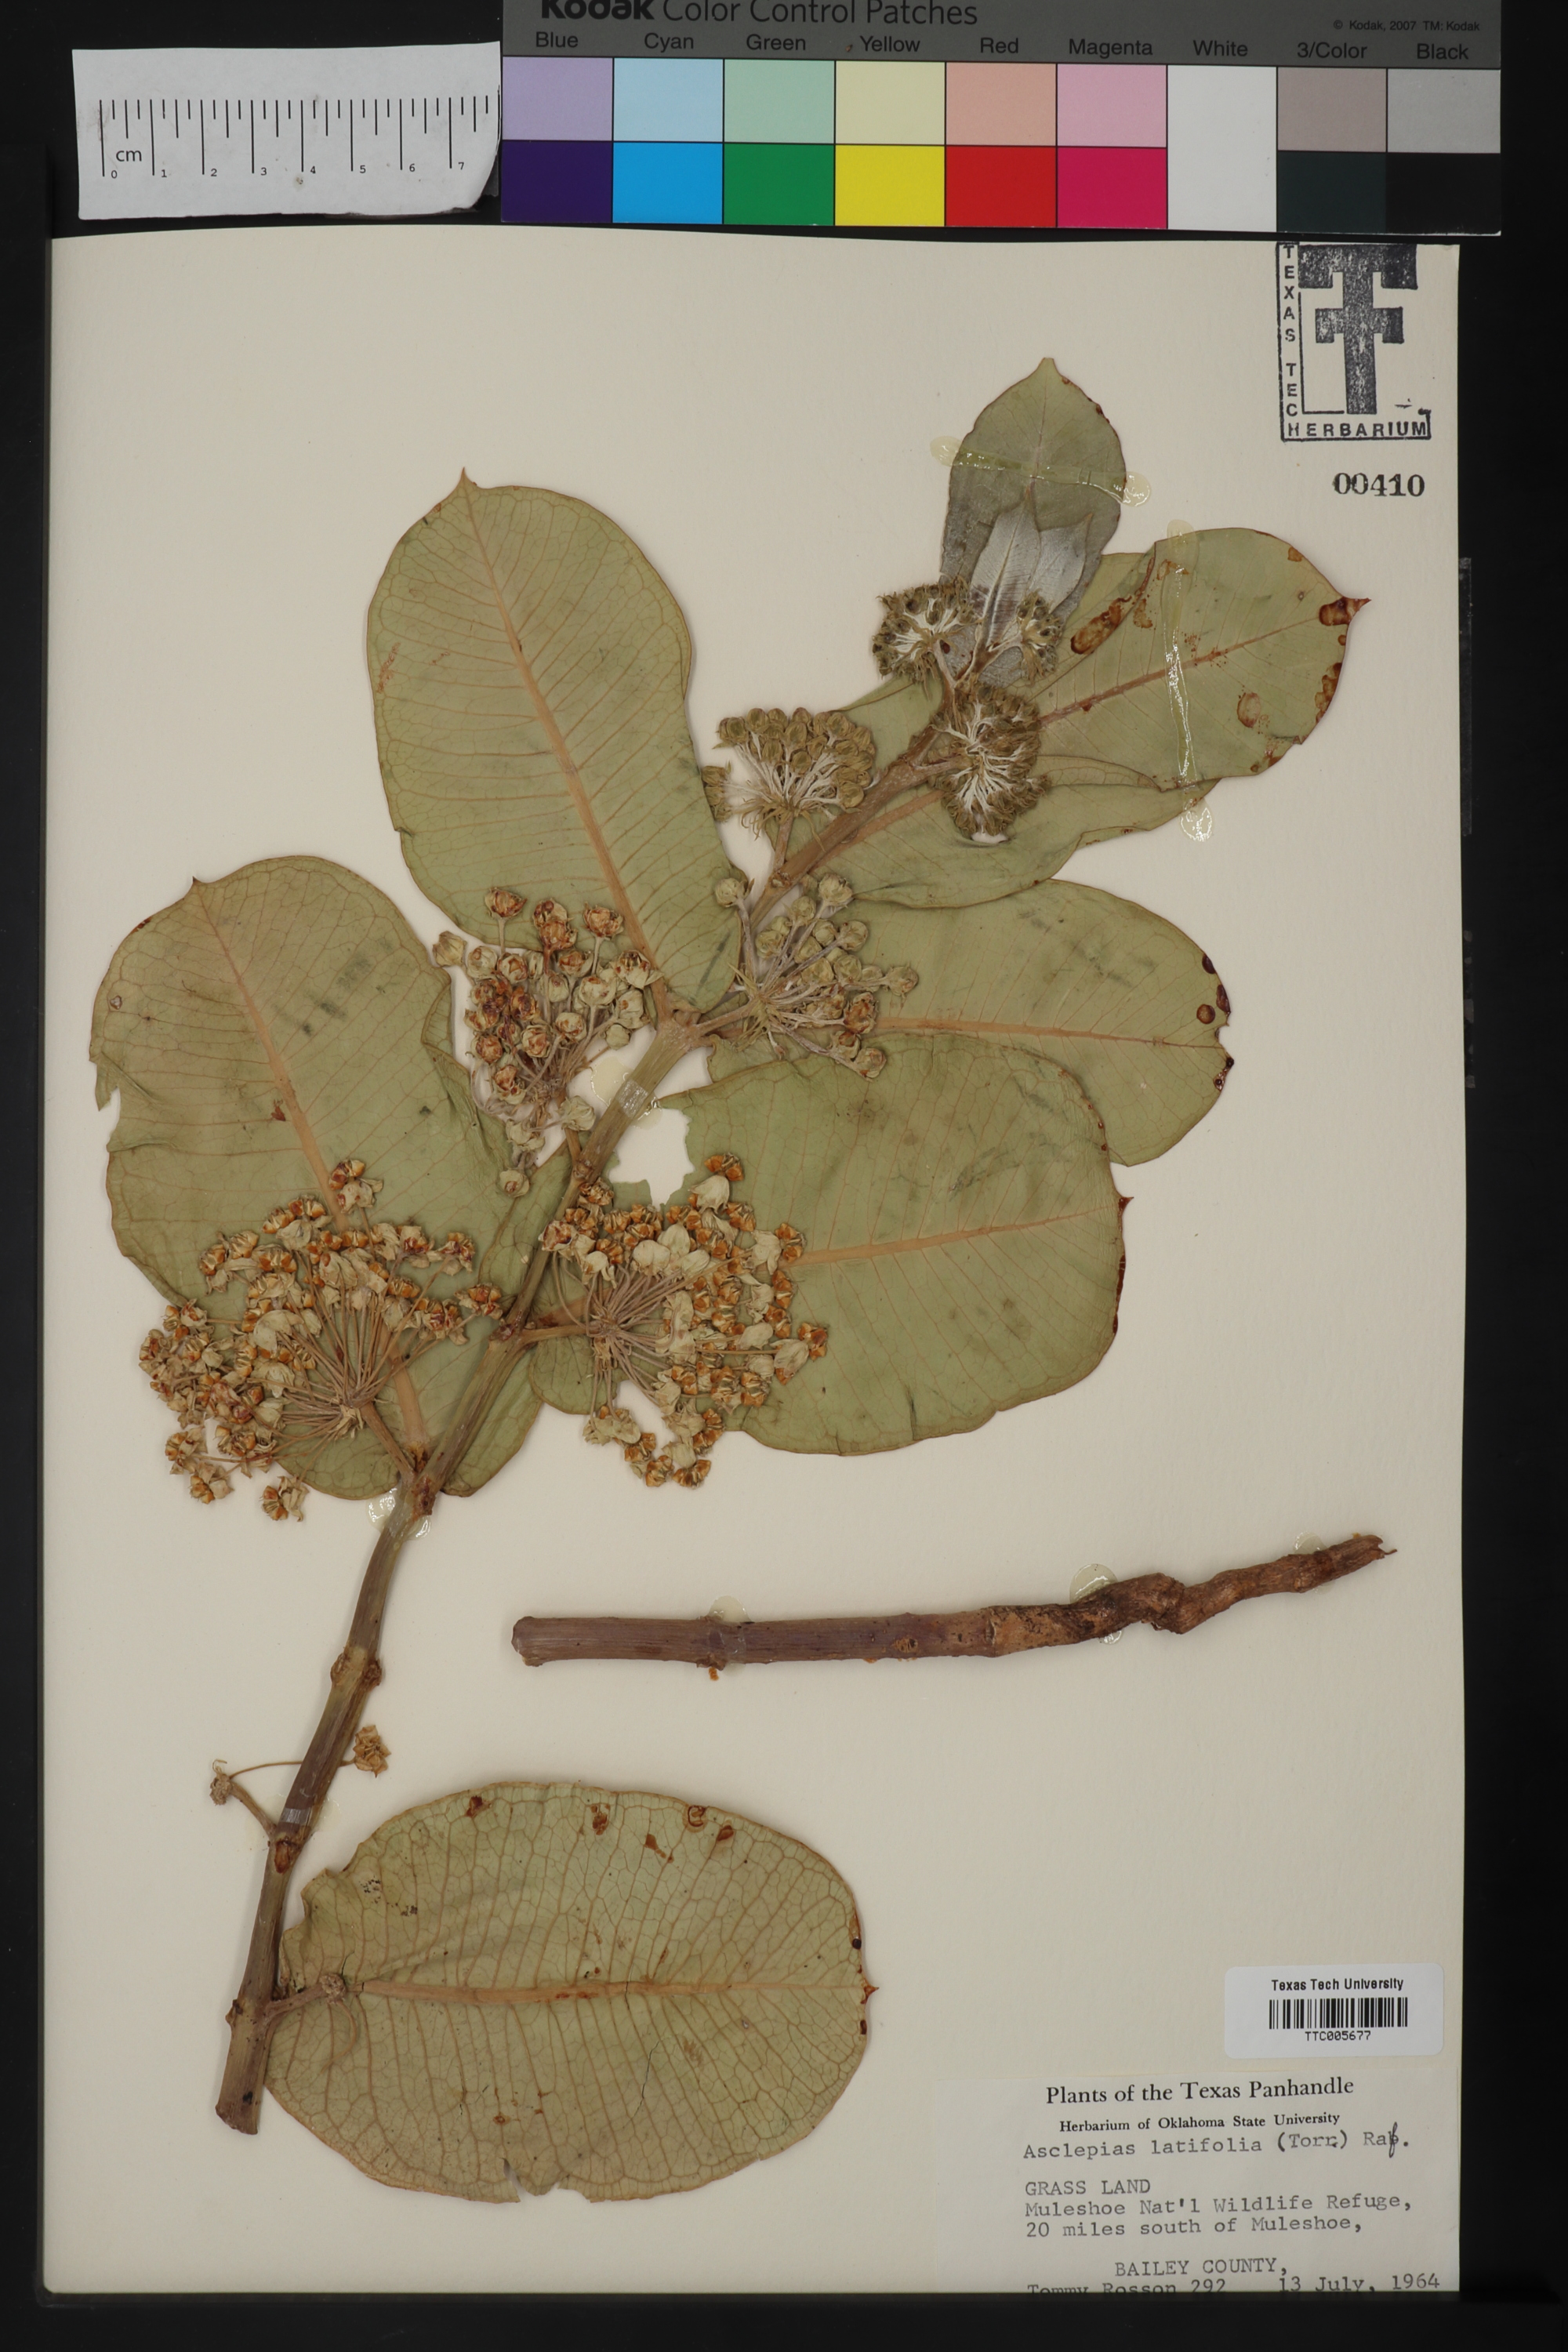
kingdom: Plantae
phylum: Tracheophyta
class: Magnoliopsida
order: Gentianales
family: Apocynaceae
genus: Asclepias
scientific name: Asclepias latifolia
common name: Broadleaf milkweed
